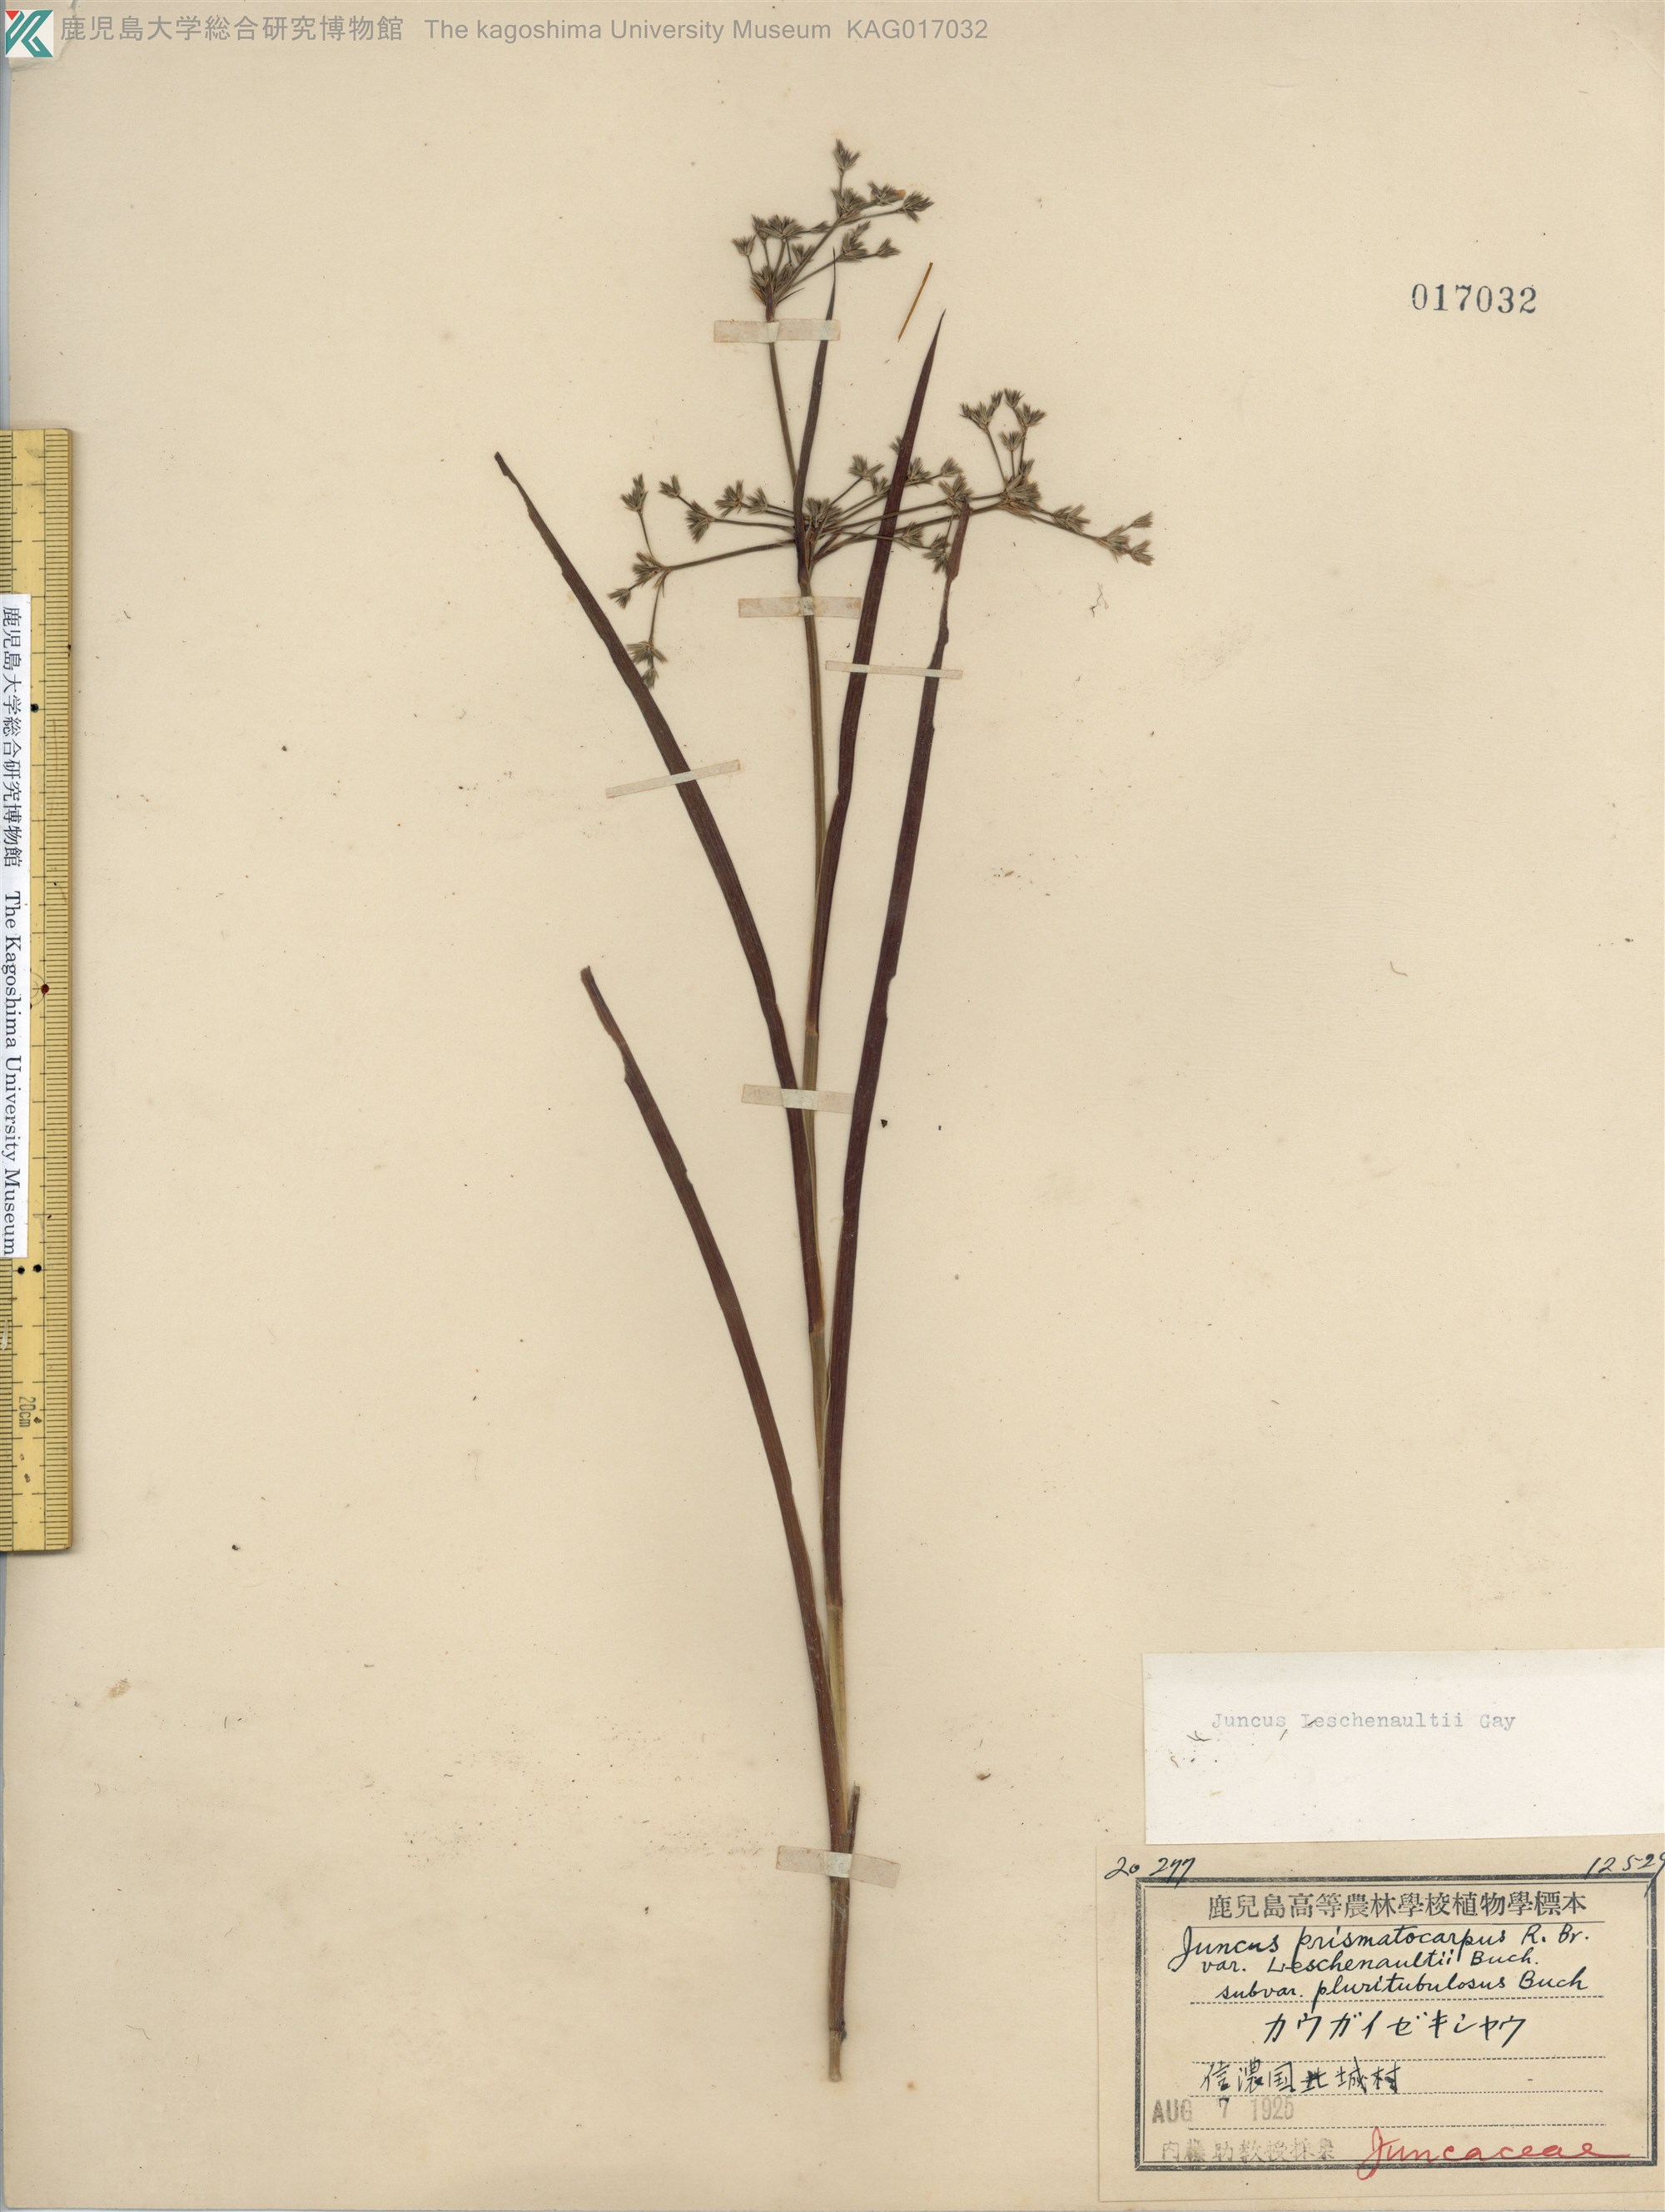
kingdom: Plantae
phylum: Tracheophyta
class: Liliopsida
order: Poales
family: Juncaceae
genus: Juncus
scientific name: Juncus prismatocarpus
